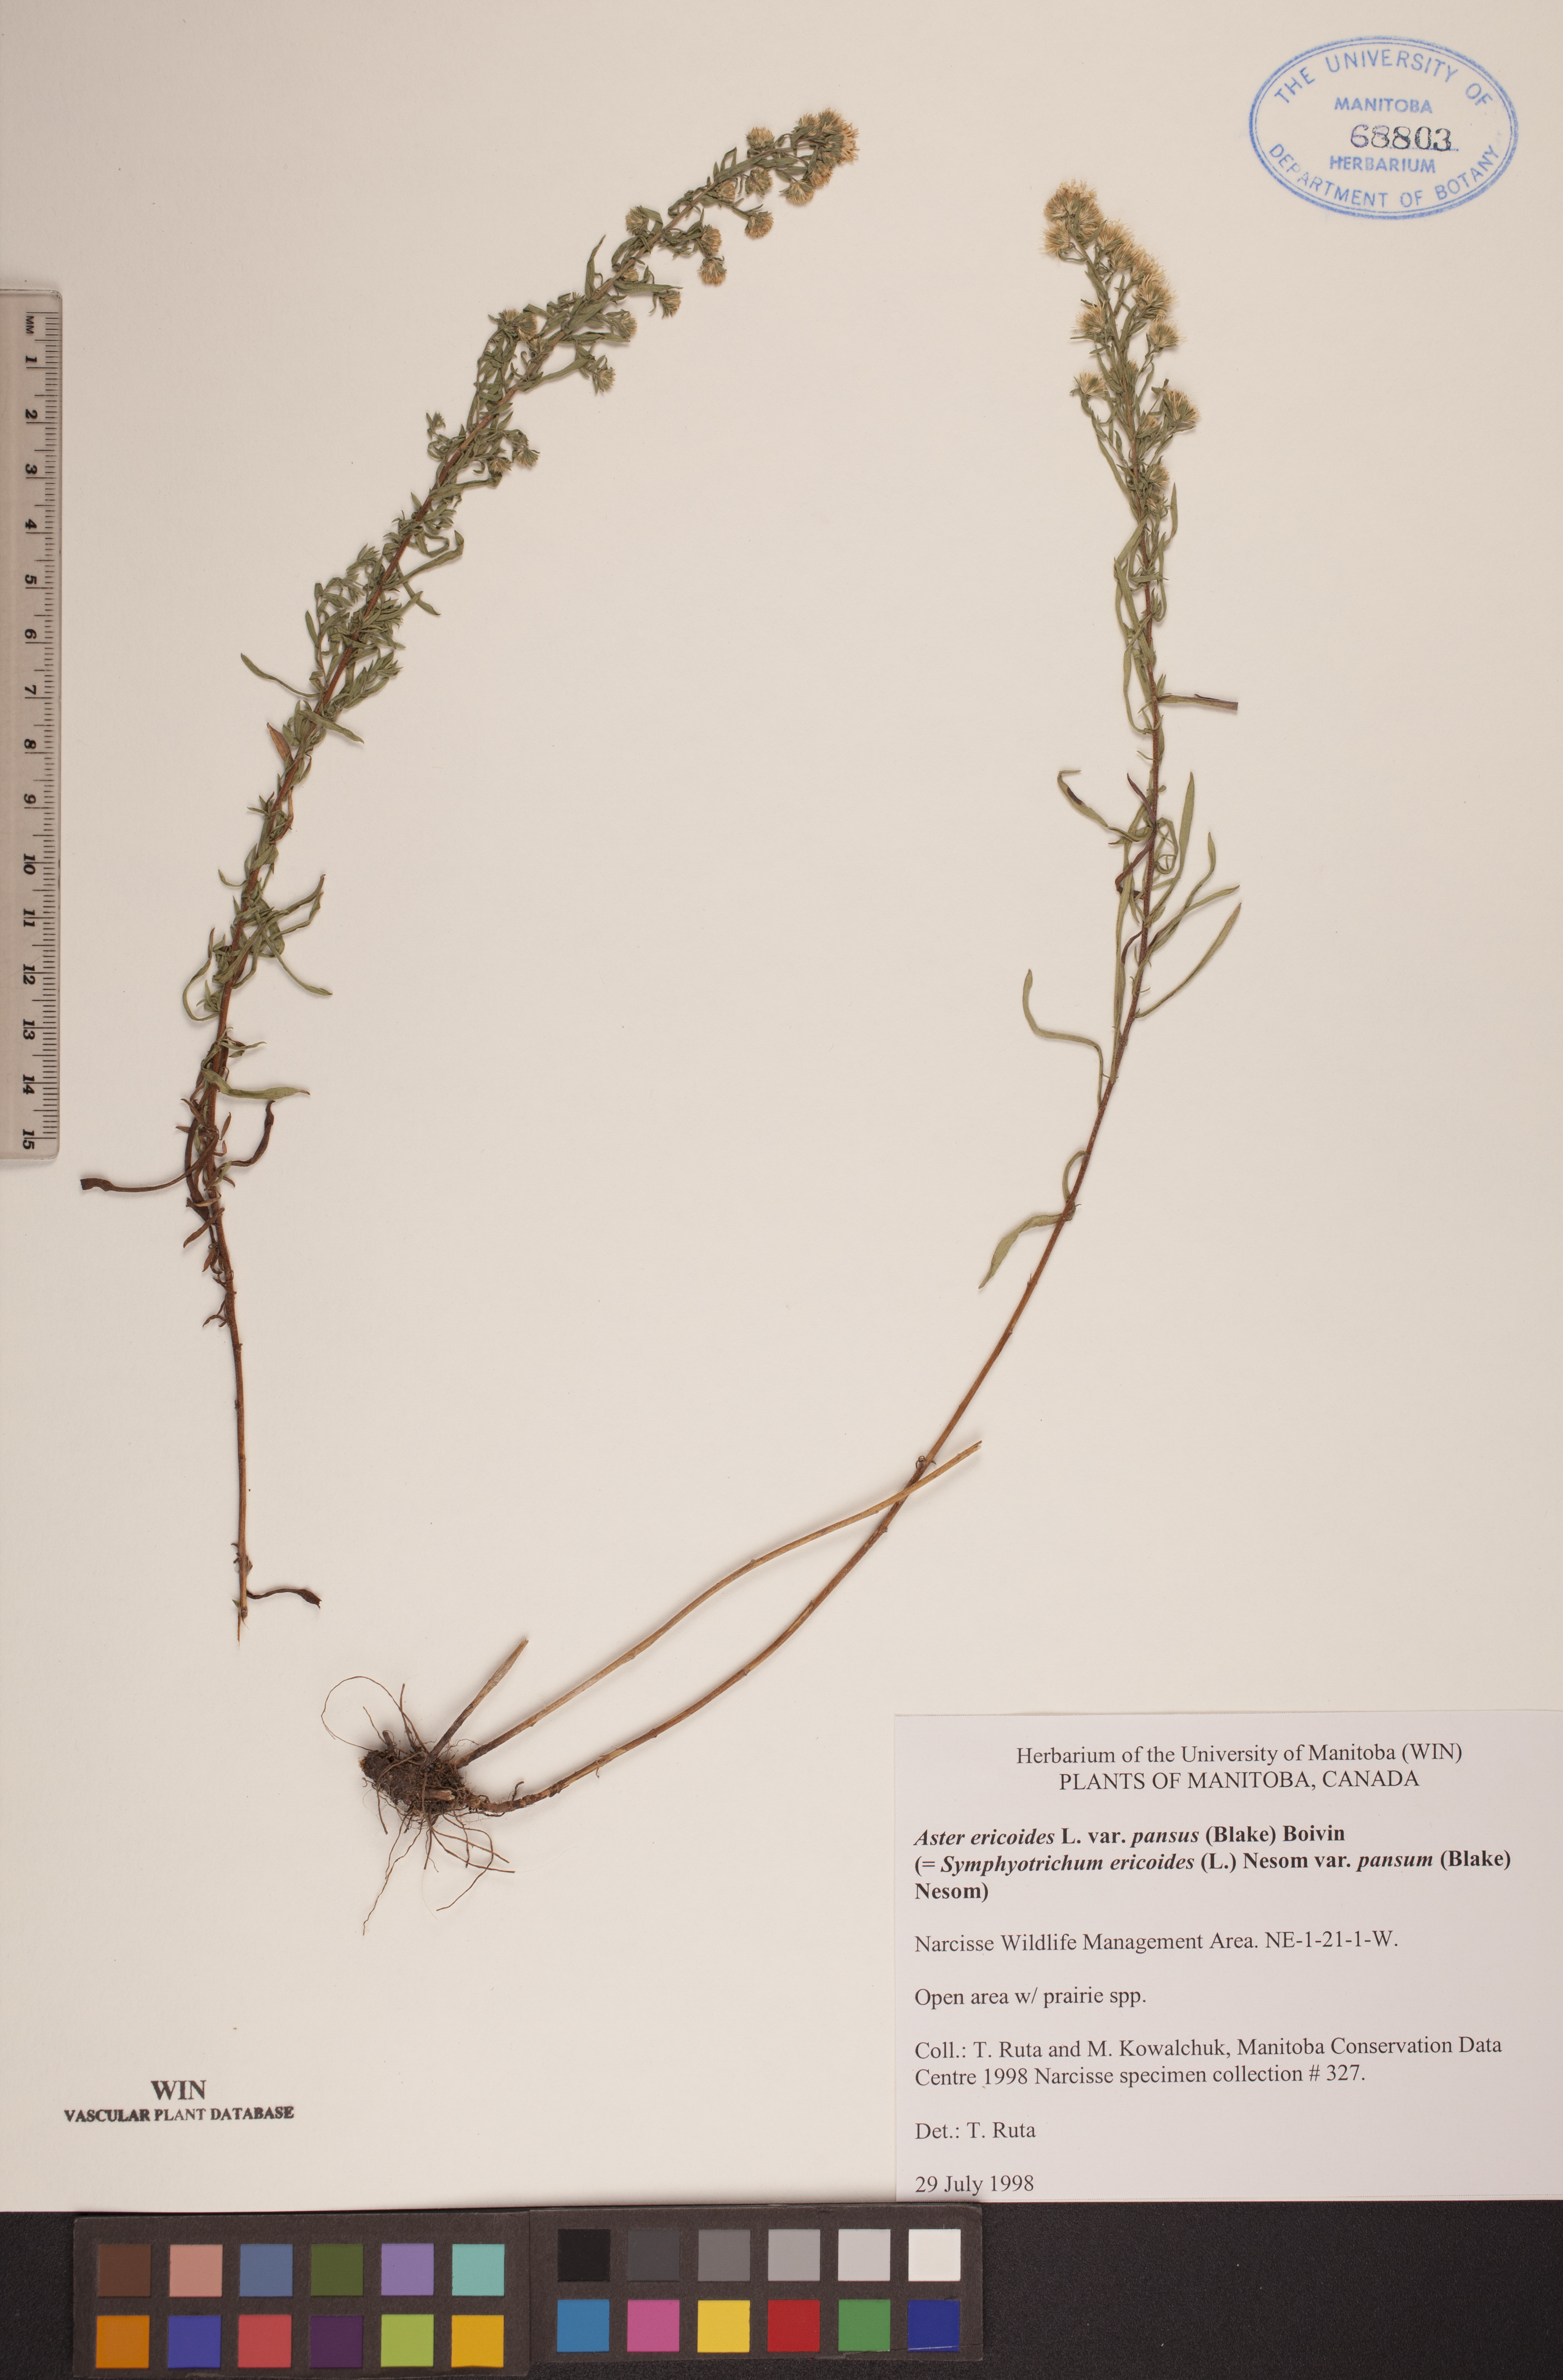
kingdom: Plantae
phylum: Tracheophyta
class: Magnoliopsida
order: Asterales
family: Asteraceae
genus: Symphyotrichum
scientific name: Symphyotrichum ericoides
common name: Heath aster
